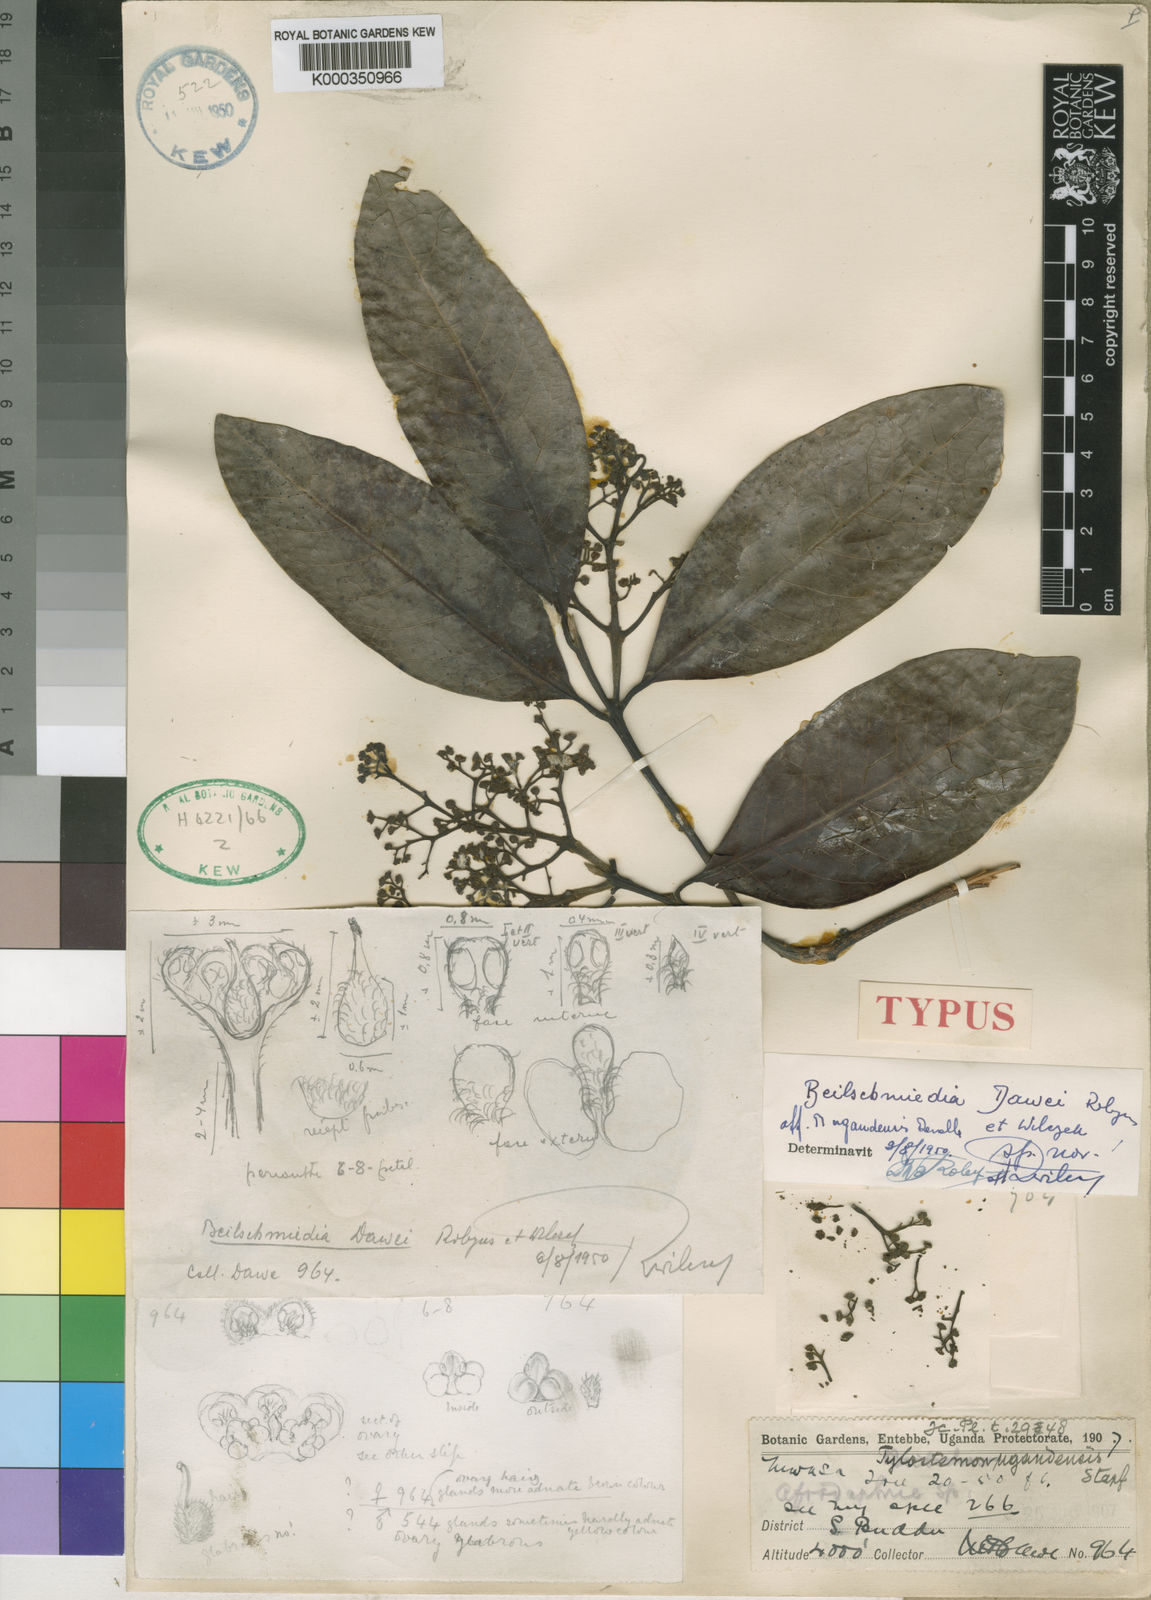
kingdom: Plantae
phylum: Tracheophyta
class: Magnoliopsida
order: Laurales
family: Lauraceae
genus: Beilschmiedia
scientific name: Beilschmiedia ugandensis
